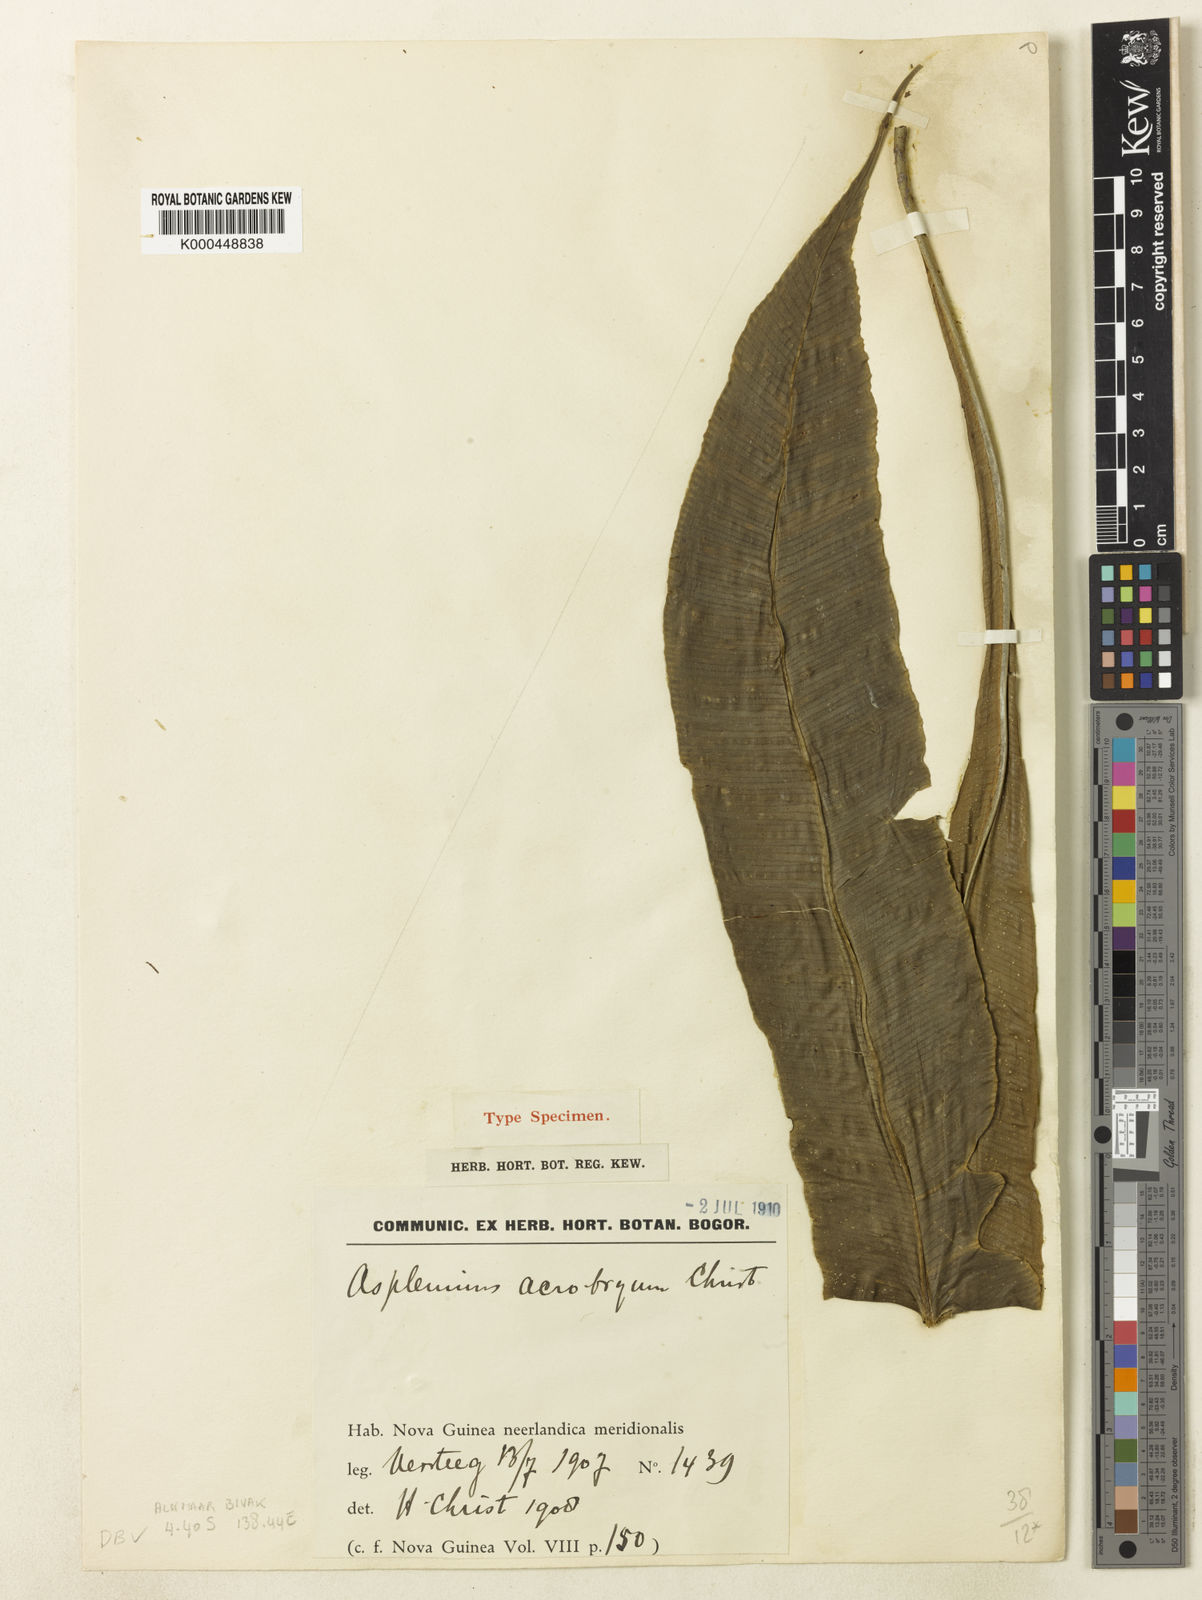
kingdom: Plantae
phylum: Tracheophyta
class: Polypodiopsida
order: Polypodiales
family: Aspleniaceae
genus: Asplenium
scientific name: Asplenium acrobryum
